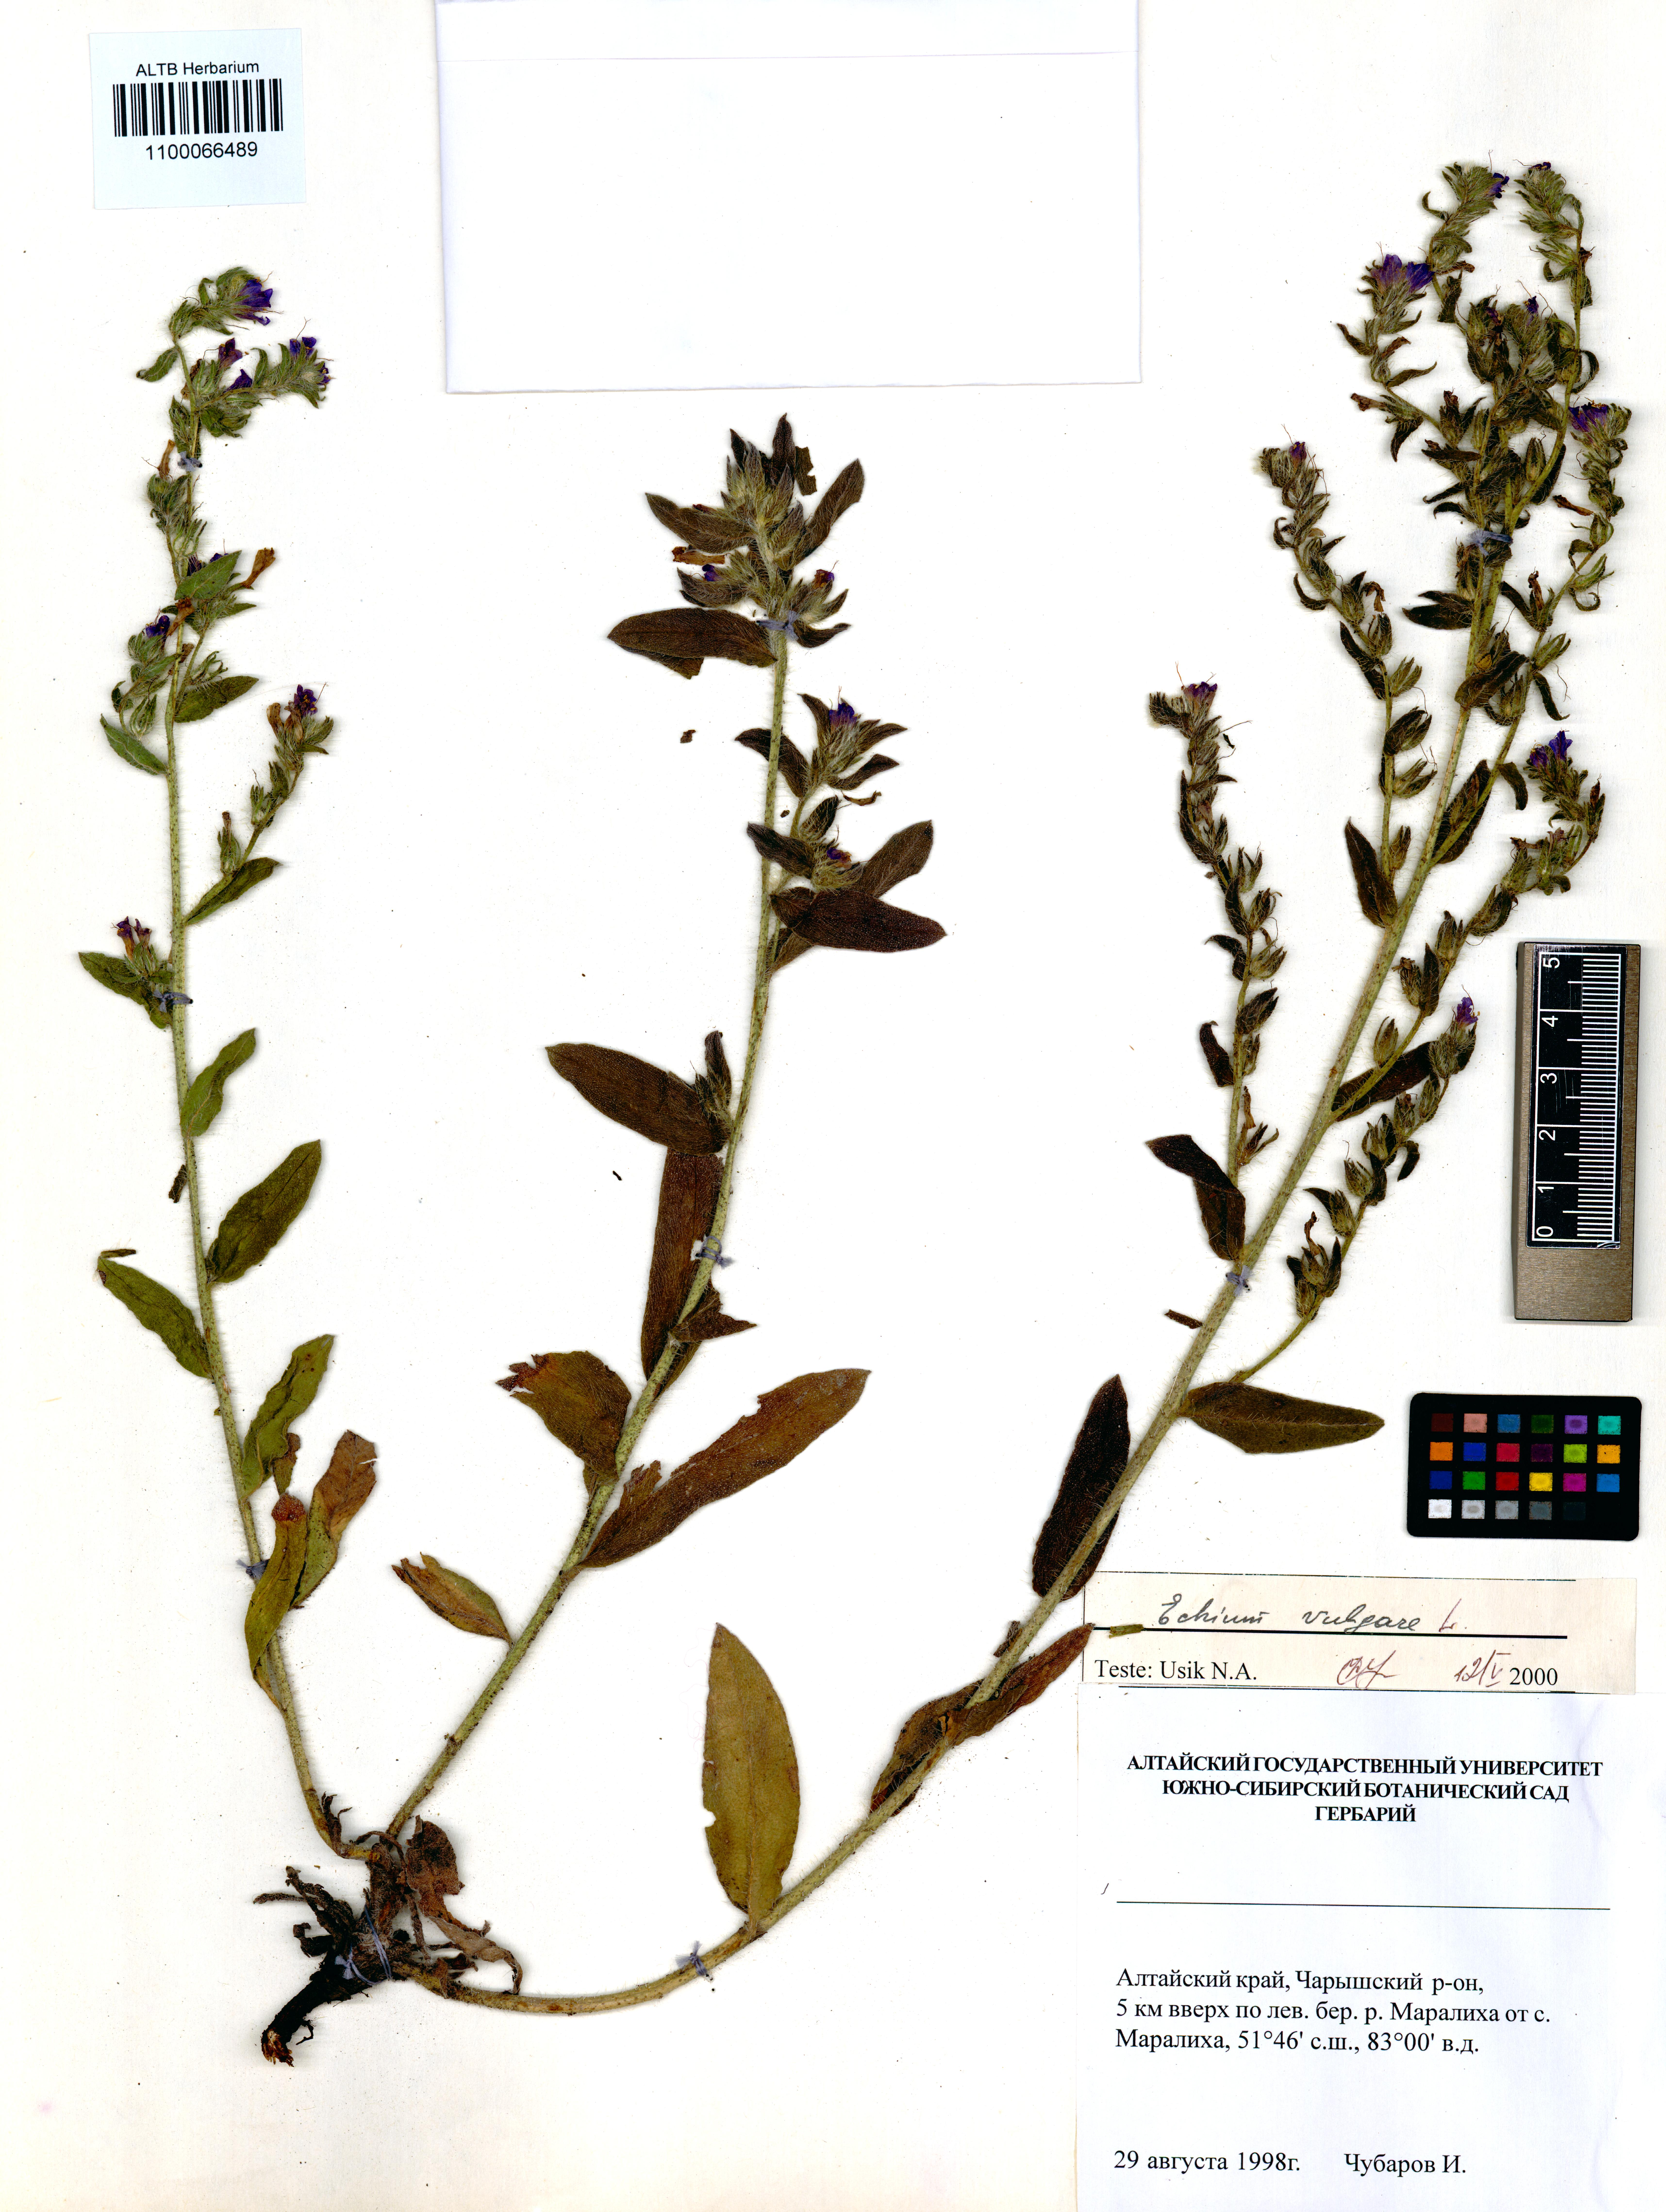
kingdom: Plantae
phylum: Tracheophyta
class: Magnoliopsida
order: Boraginales
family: Boraginaceae
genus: Echium
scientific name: Echium vulgare
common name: Common viper's bugloss
